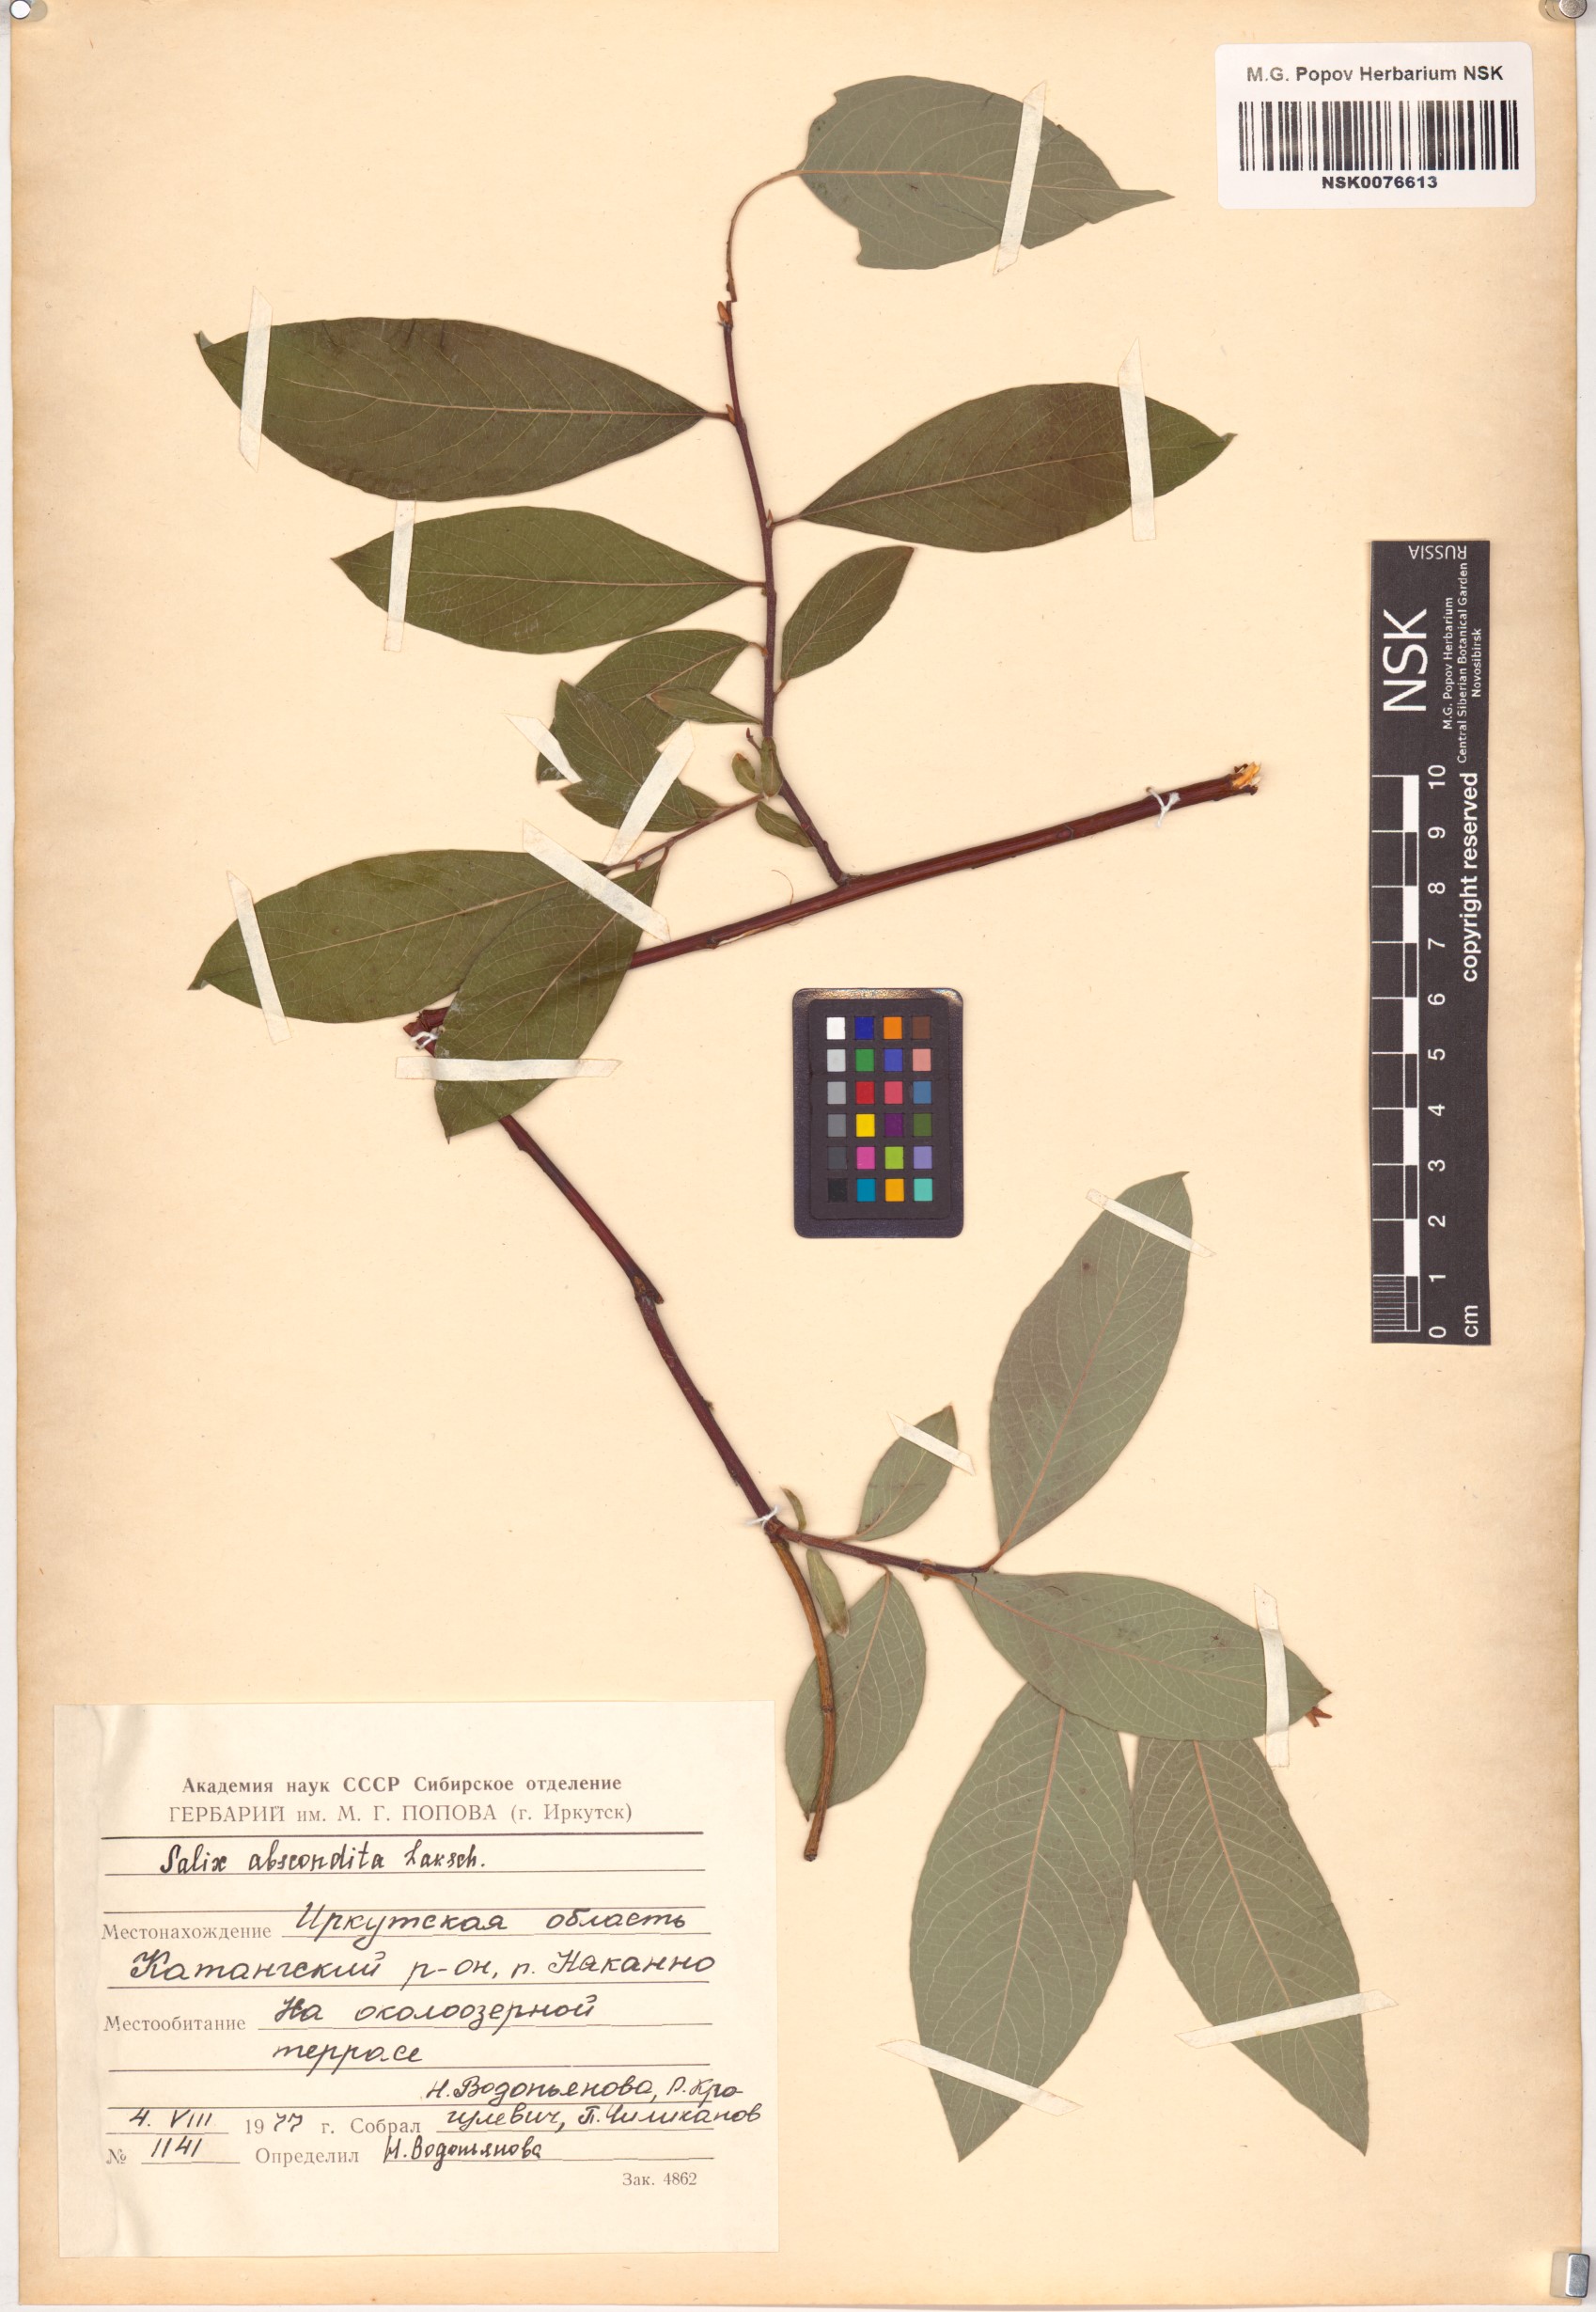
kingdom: Plantae
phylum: Tracheophyta
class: Magnoliopsida
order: Malpighiales
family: Salicaceae
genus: Salix
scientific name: Salix abscondita
